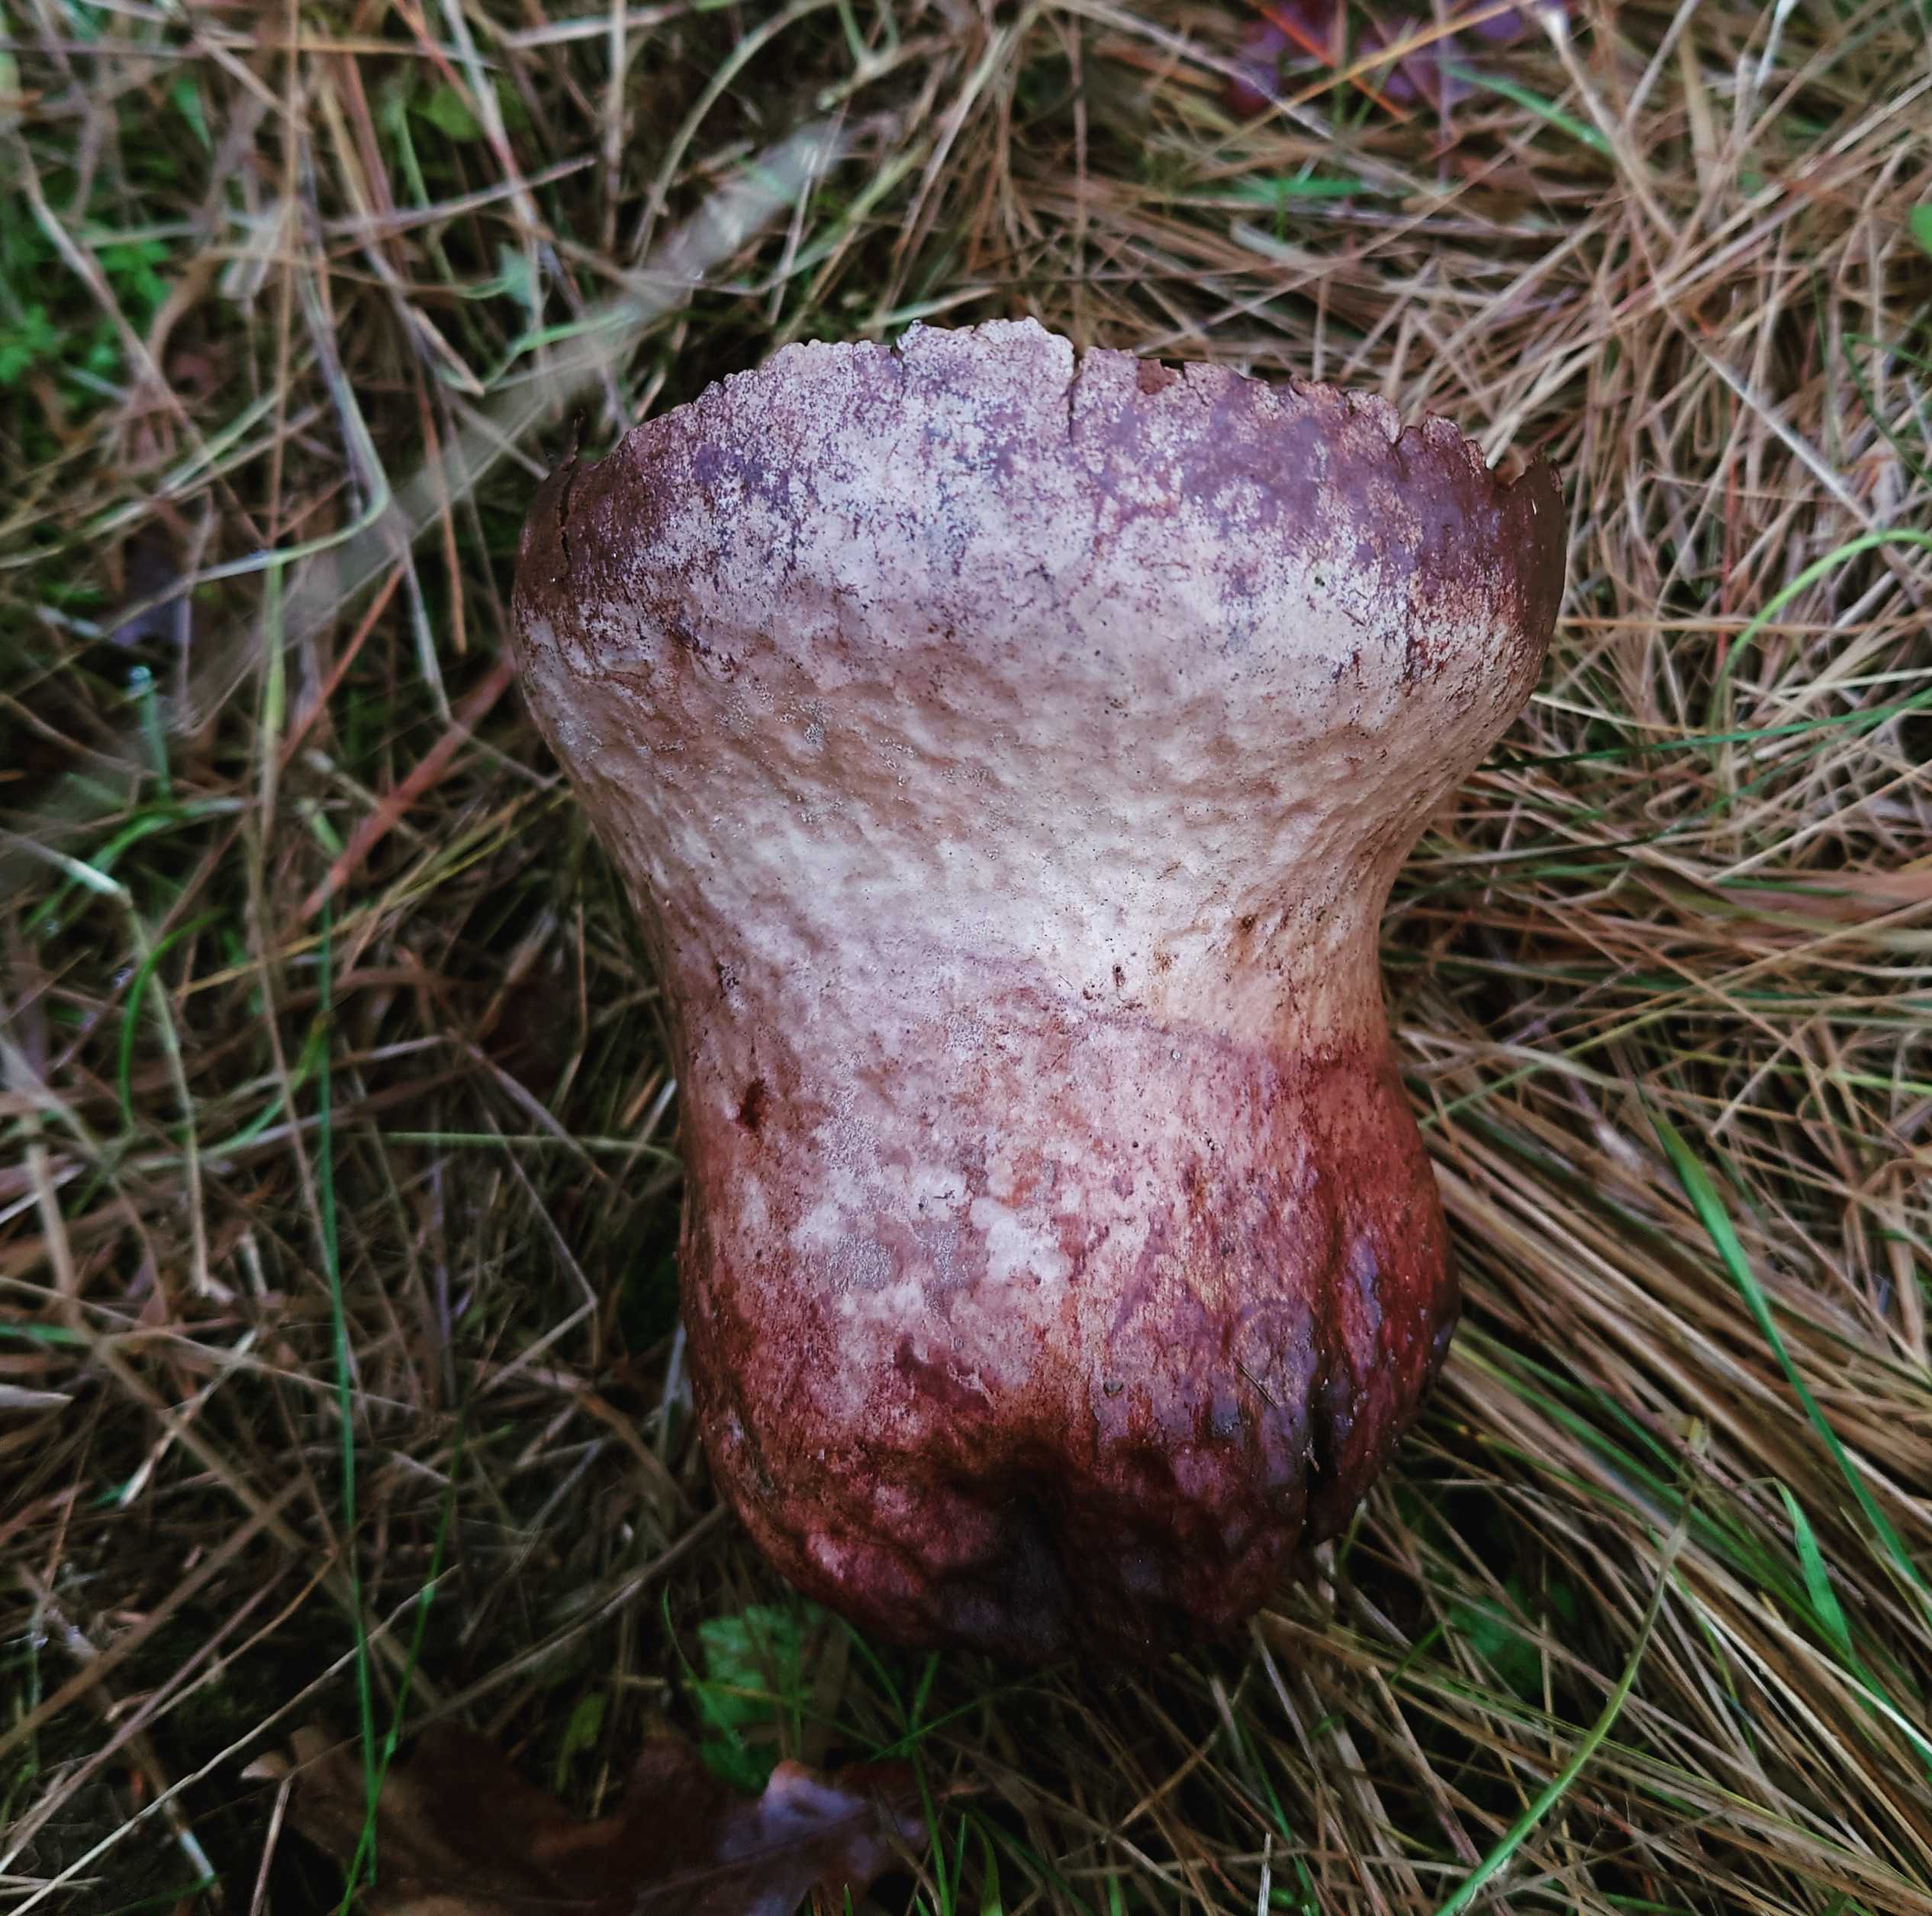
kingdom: Fungi
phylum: Basidiomycota
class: Agaricomycetes
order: Agaricales
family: Lycoperdaceae
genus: Bovistella
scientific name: Bovistella utriformis
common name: skællet støvbold
